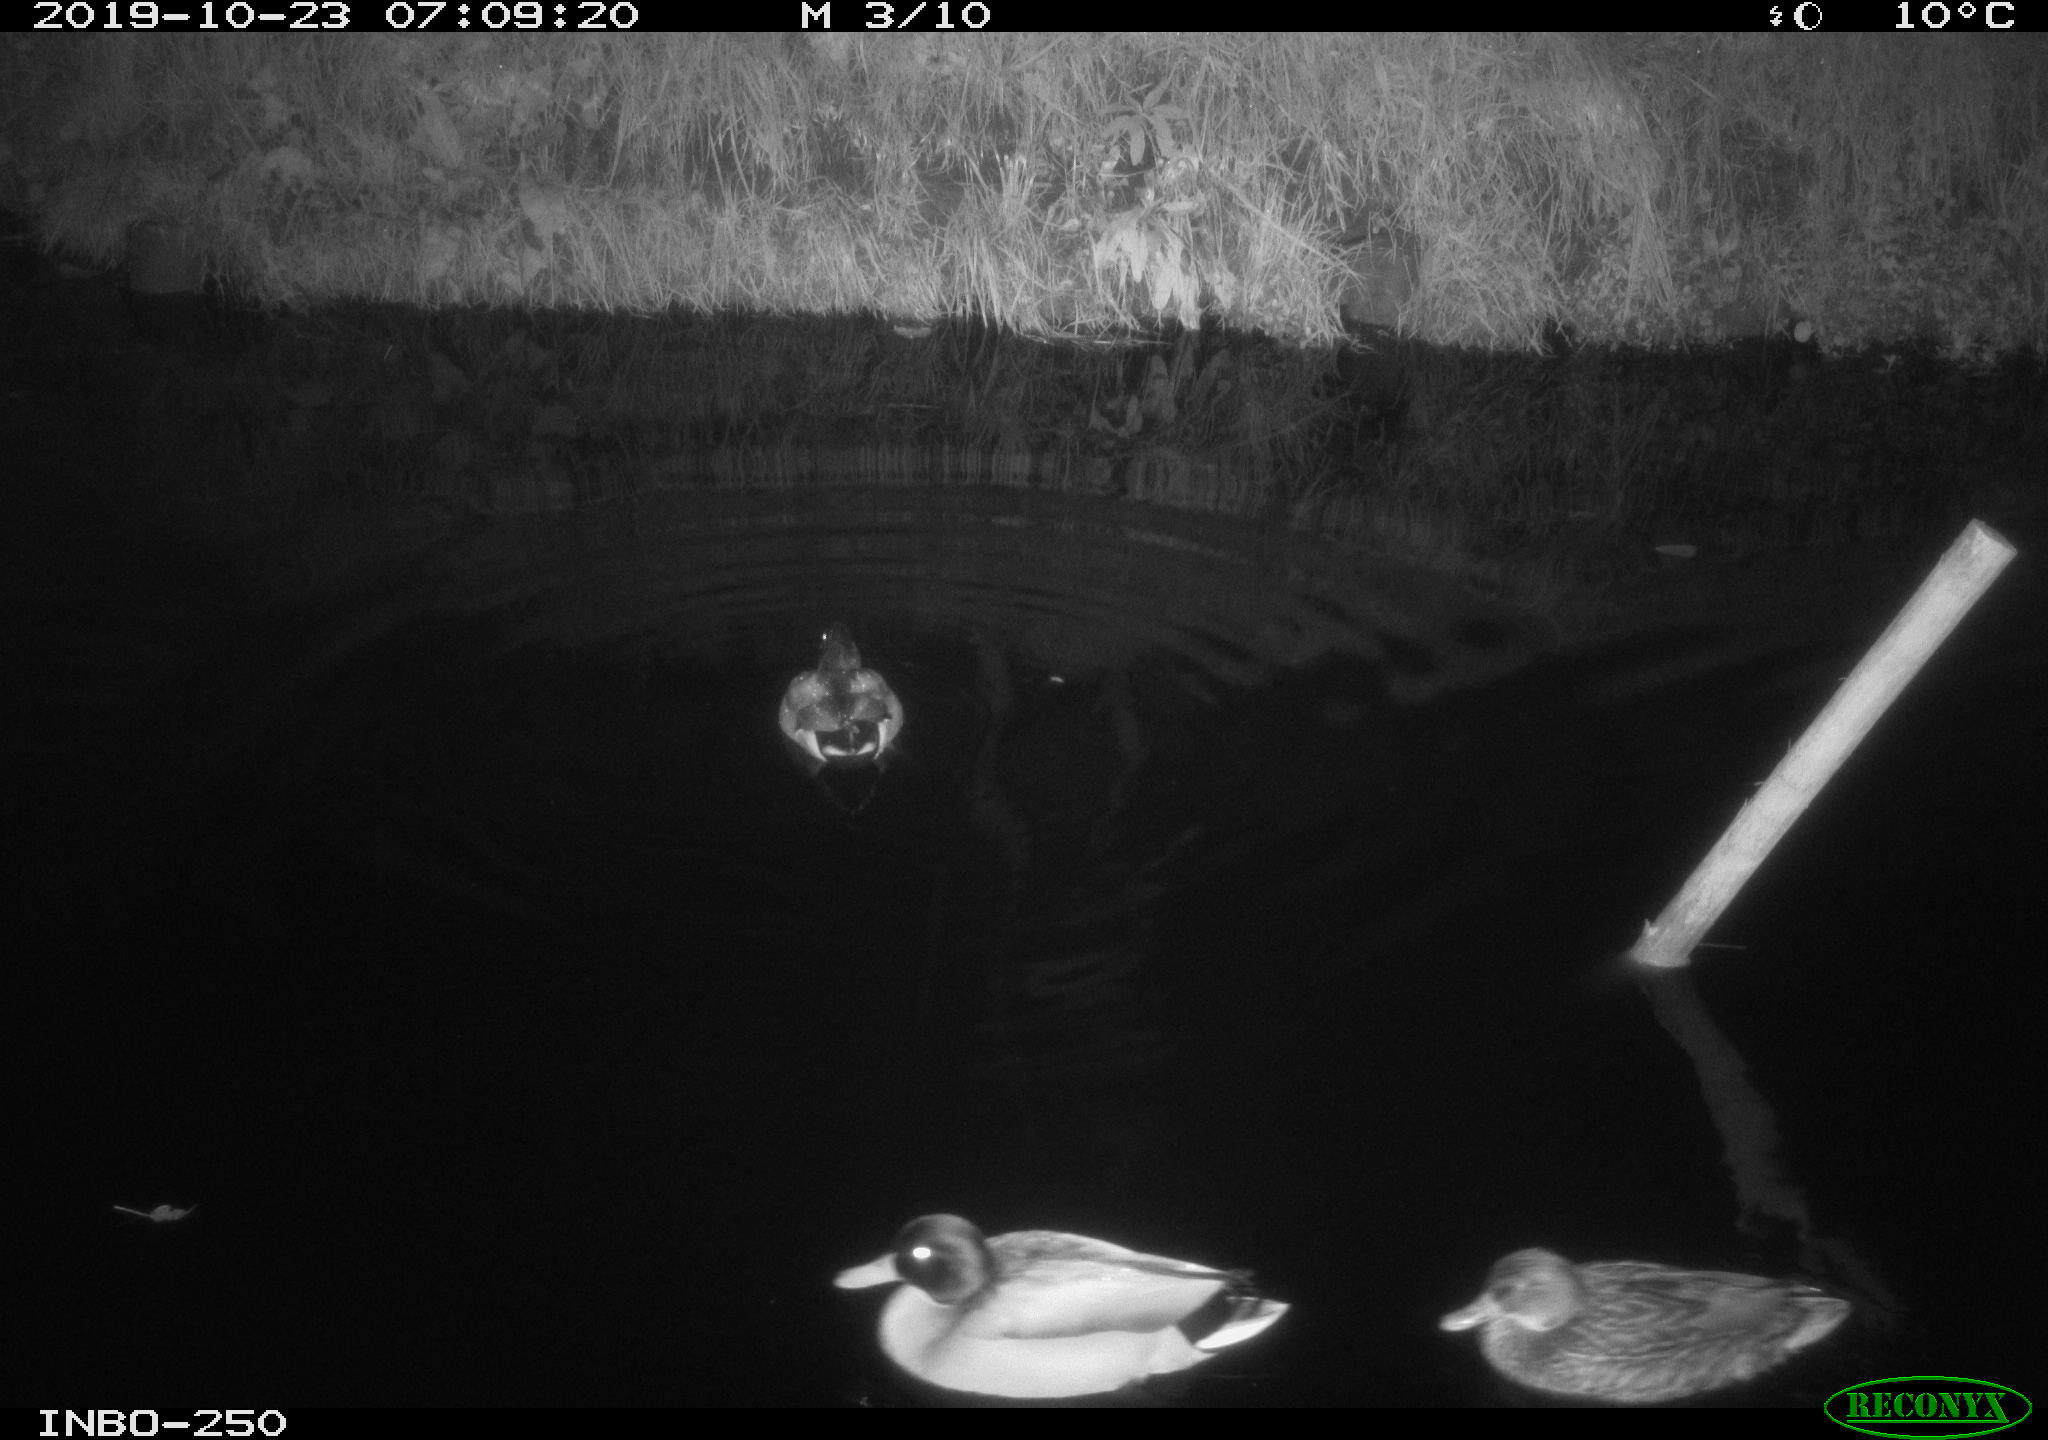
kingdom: Animalia
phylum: Chordata
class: Aves
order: Anseriformes
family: Anatidae
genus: Anas
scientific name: Anas platyrhynchos
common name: Mallard
